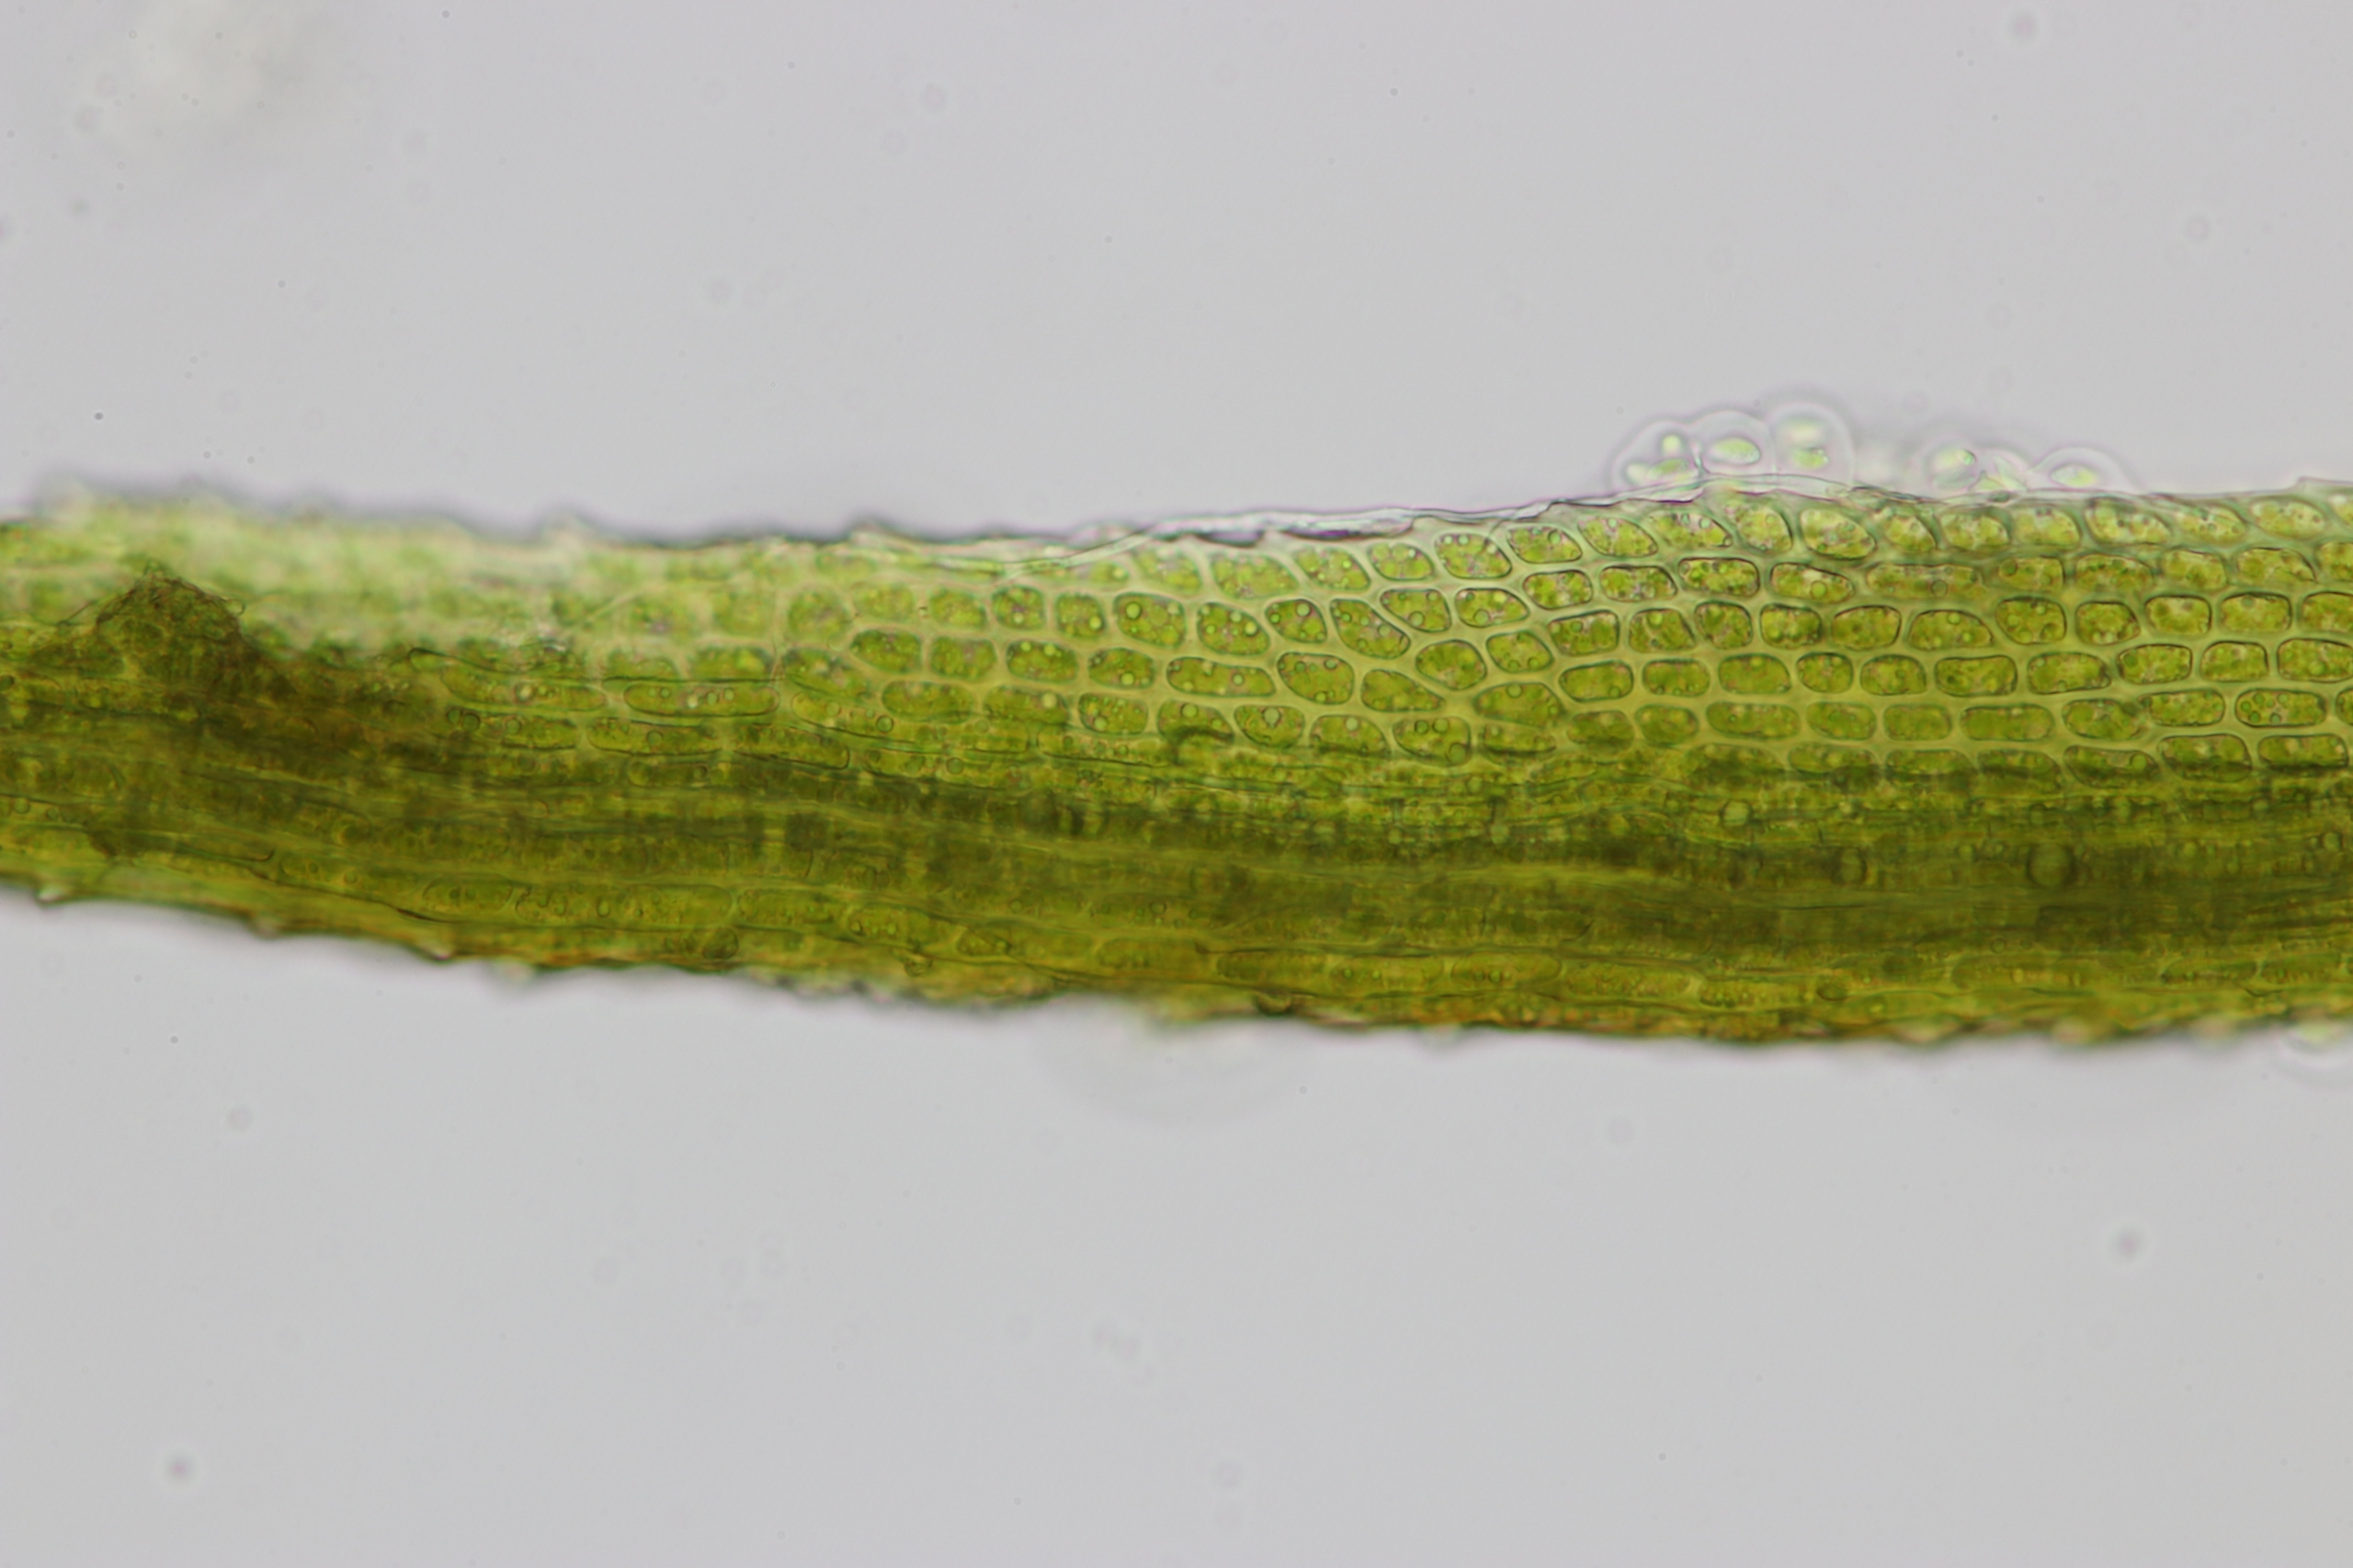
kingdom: Plantae
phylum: Bryophyta
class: Bryopsida
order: Dicranales
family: Dicranaceae
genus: Dicranum
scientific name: Dicranum fuscescens
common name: Mørk kløvtand
